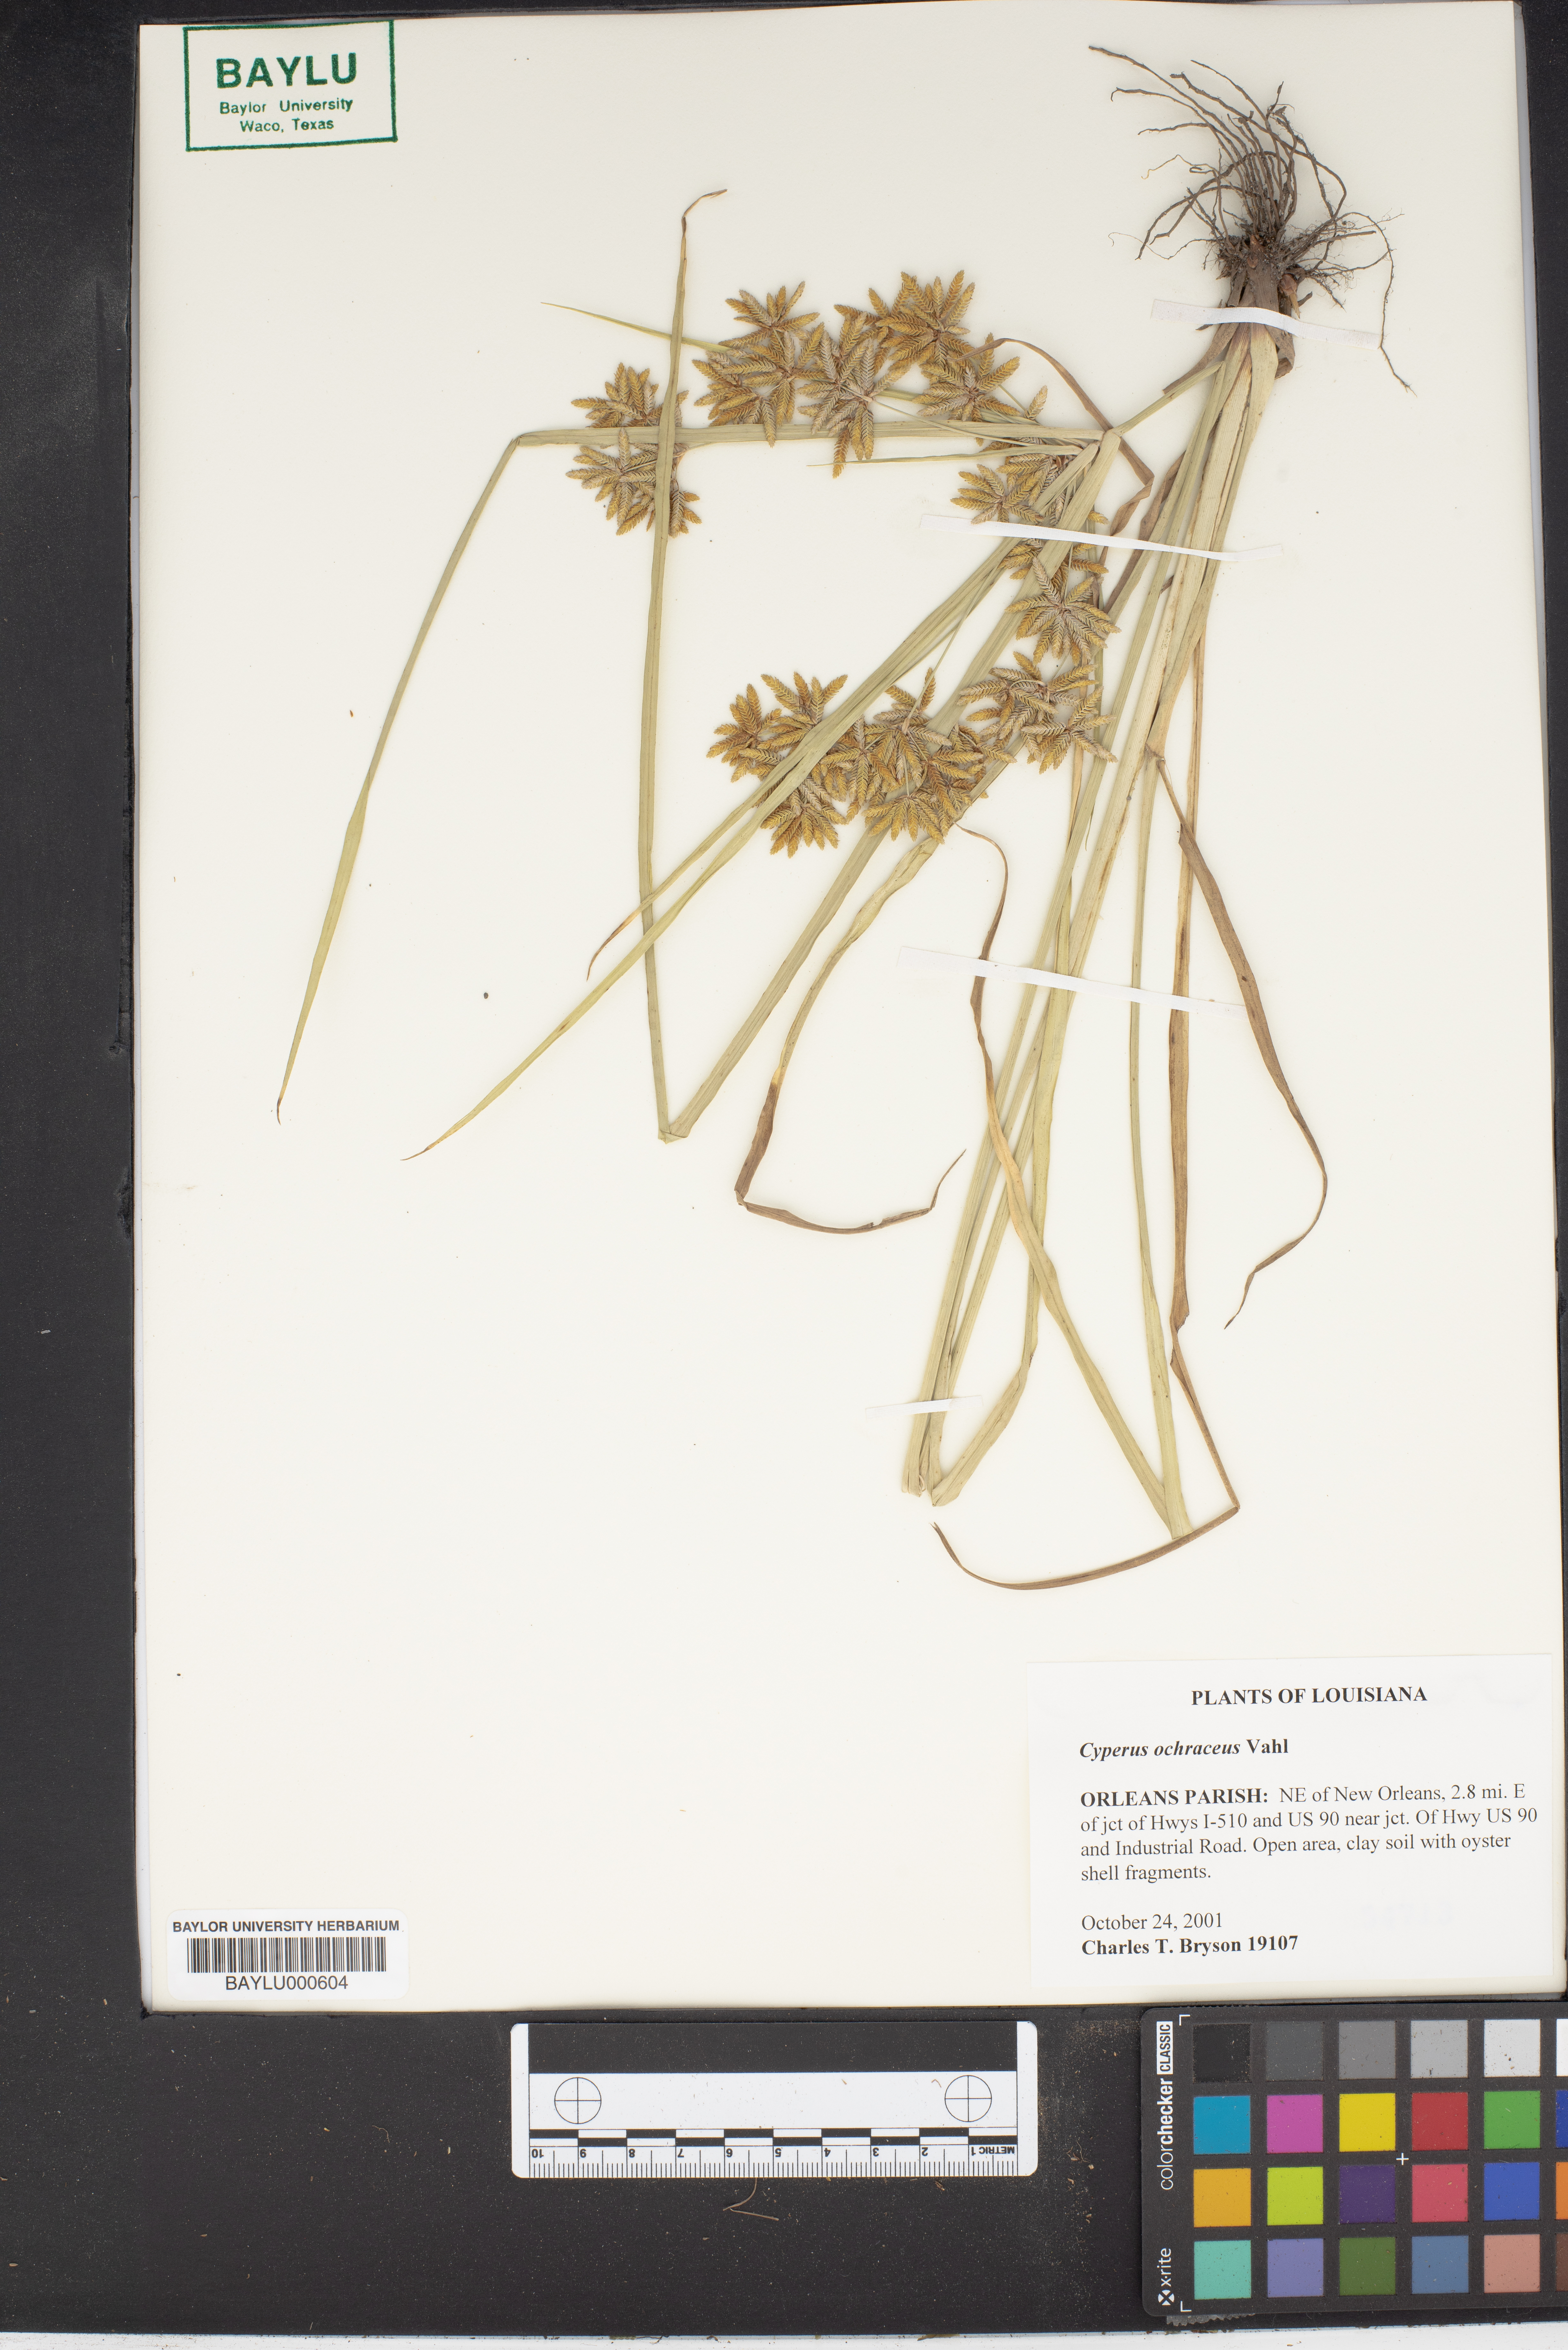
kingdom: Plantae
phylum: Tracheophyta
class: Liliopsida
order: Poales
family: Cyperaceae
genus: Cyperus
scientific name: Cyperus ochraceus
